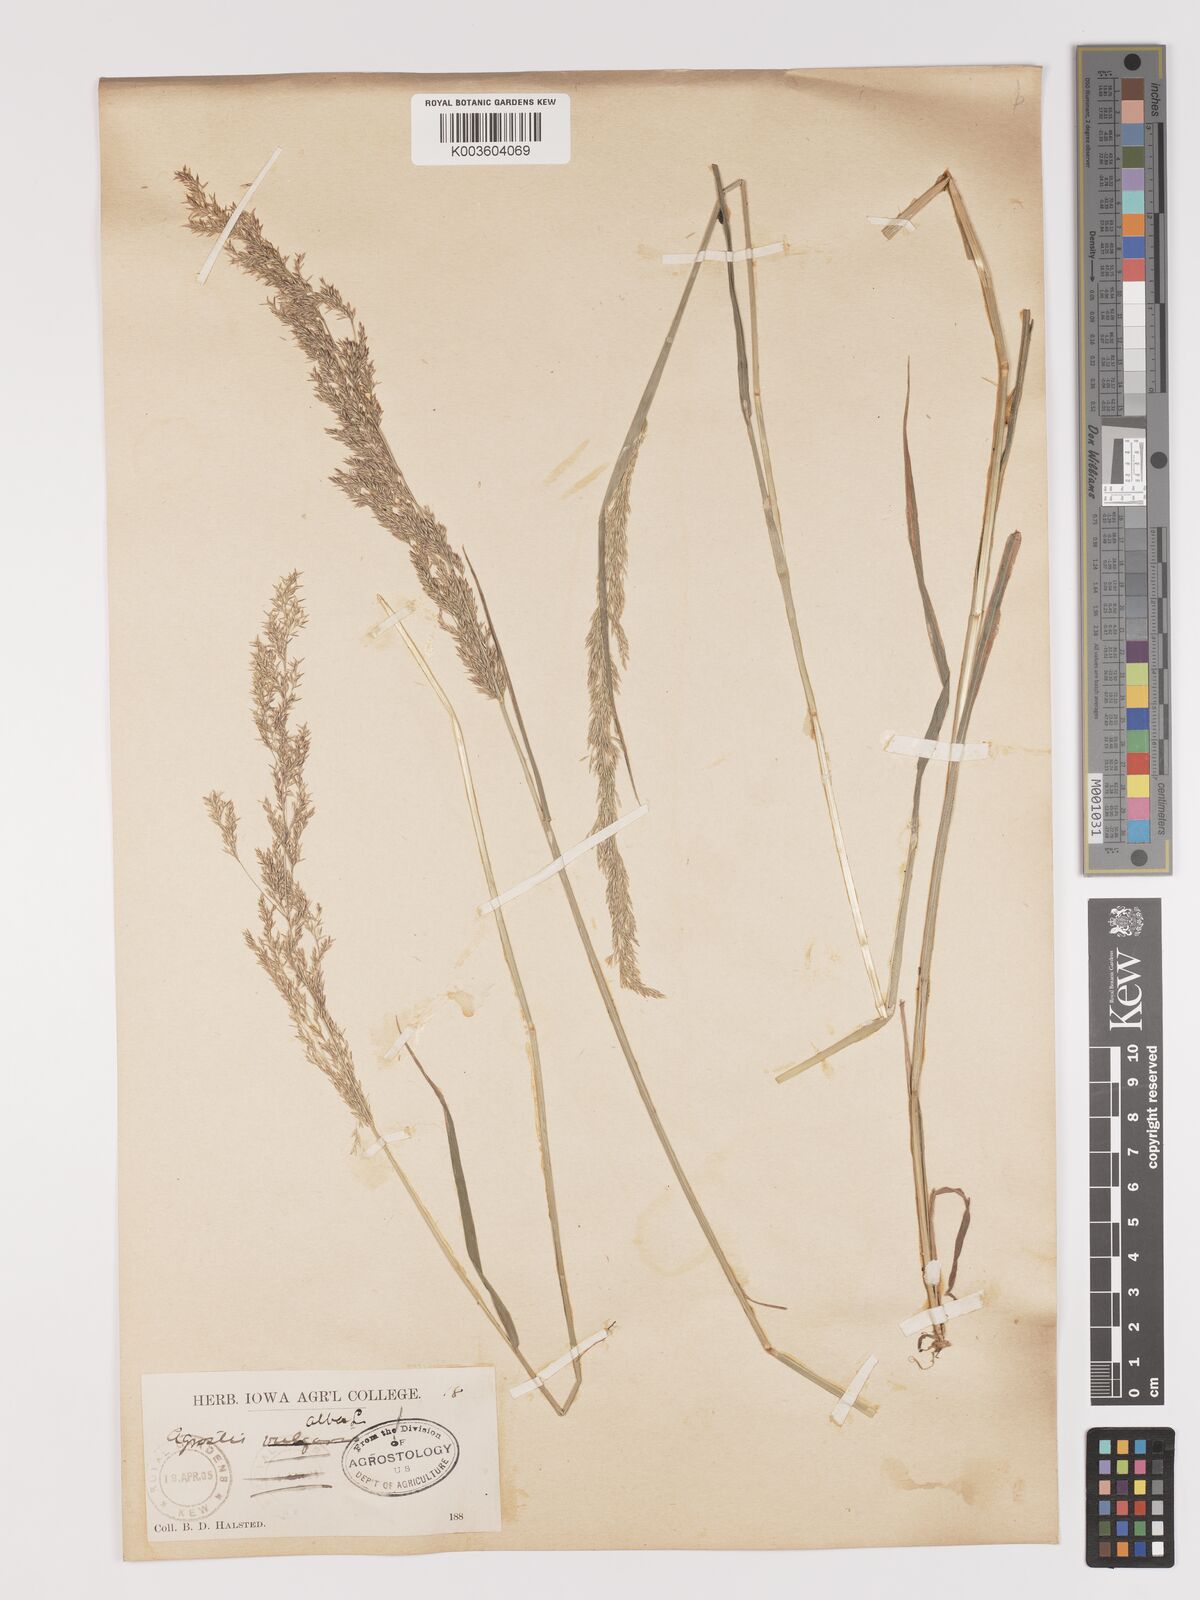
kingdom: Plantae
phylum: Tracheophyta
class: Liliopsida
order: Poales
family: Poaceae
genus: Agrostis
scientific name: Agrostis gigantea
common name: Black bent
